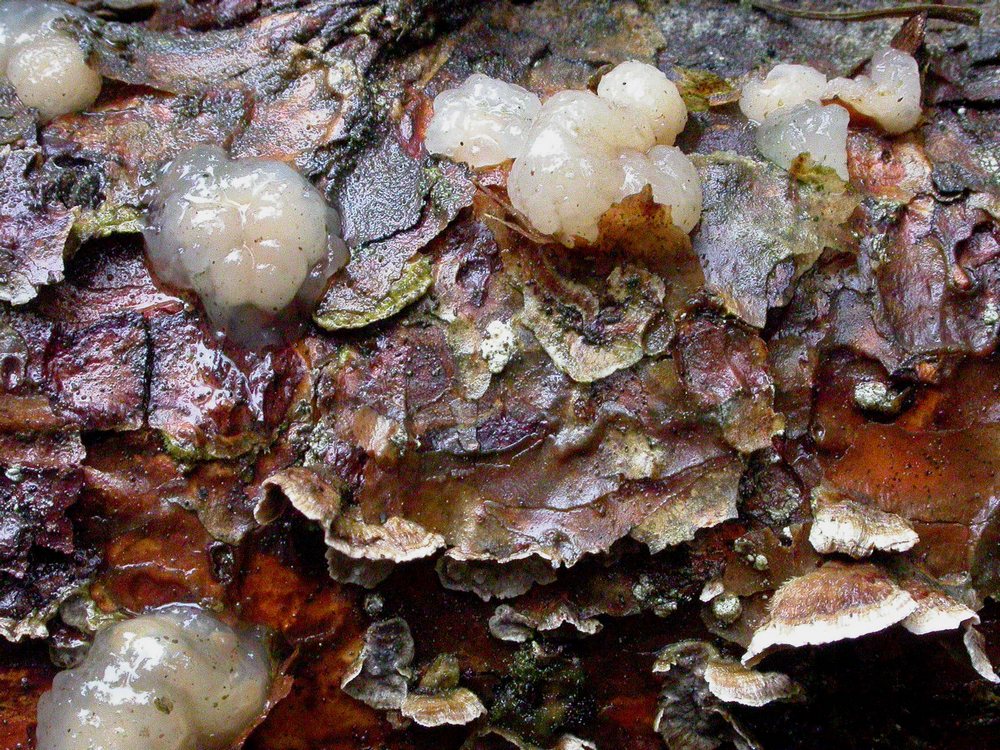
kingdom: Fungi
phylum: Basidiomycota
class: Tremellomycetes
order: Tremellales
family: Naemateliaceae
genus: Naematelia
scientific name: Naematelia encephala
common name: fyrre-bævresvamp
